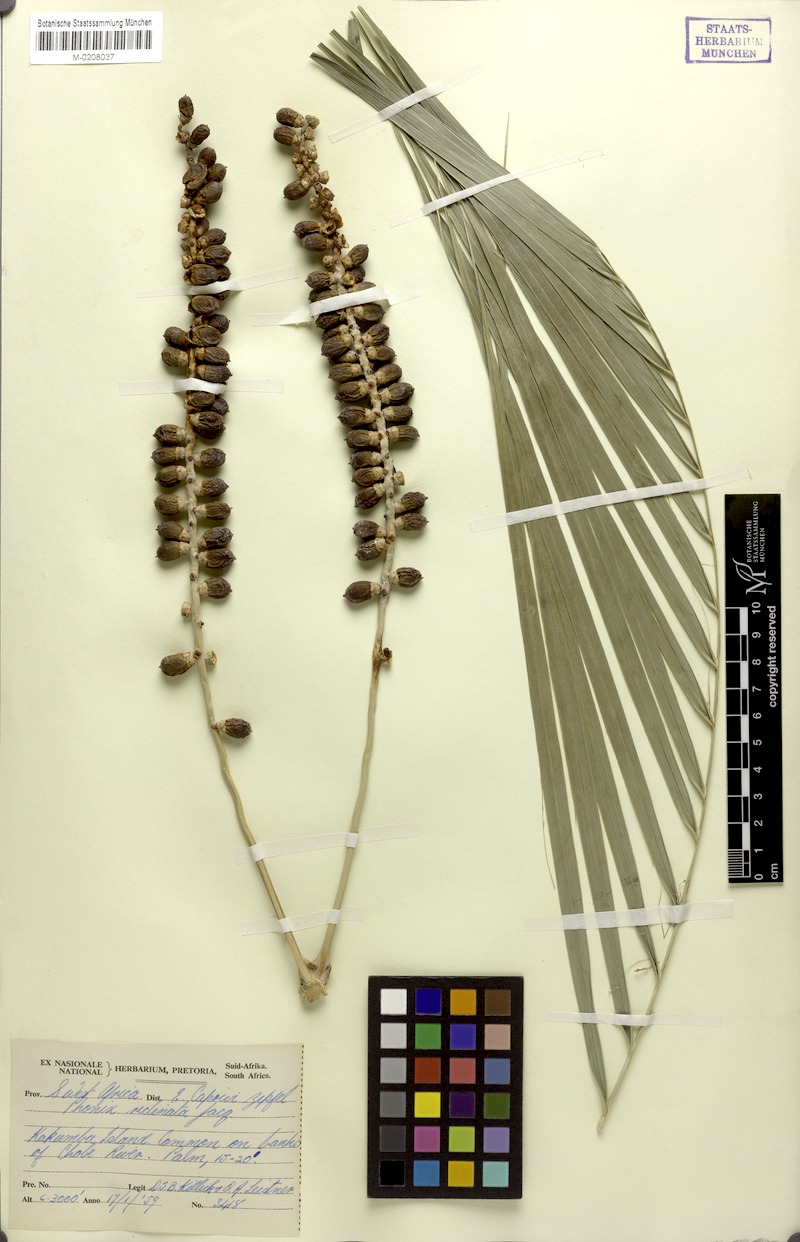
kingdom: Plantae
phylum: Tracheophyta
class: Liliopsida
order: Arecales
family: Arecaceae
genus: Phoenix
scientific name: Phoenix reclinata
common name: Senegal date palm
